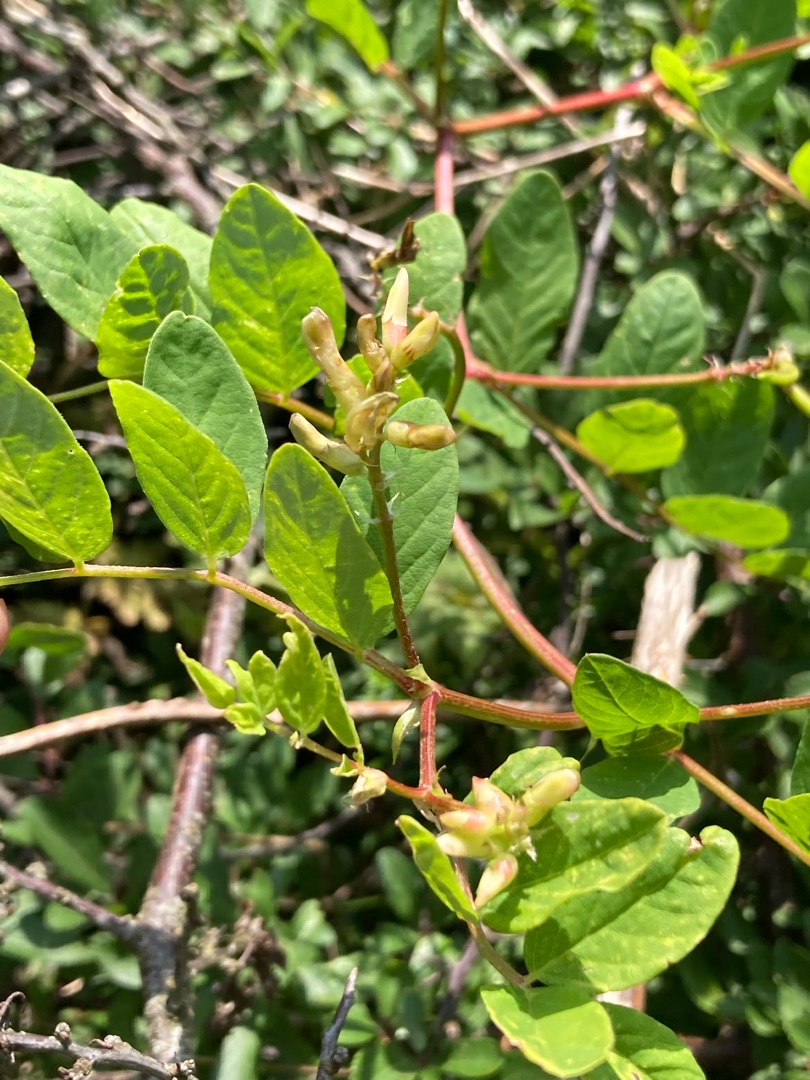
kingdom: Plantae
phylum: Tracheophyta
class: Magnoliopsida
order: Fabales
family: Fabaceae
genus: Astragalus
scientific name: Astragalus glycyphyllos
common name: Sød astragel
